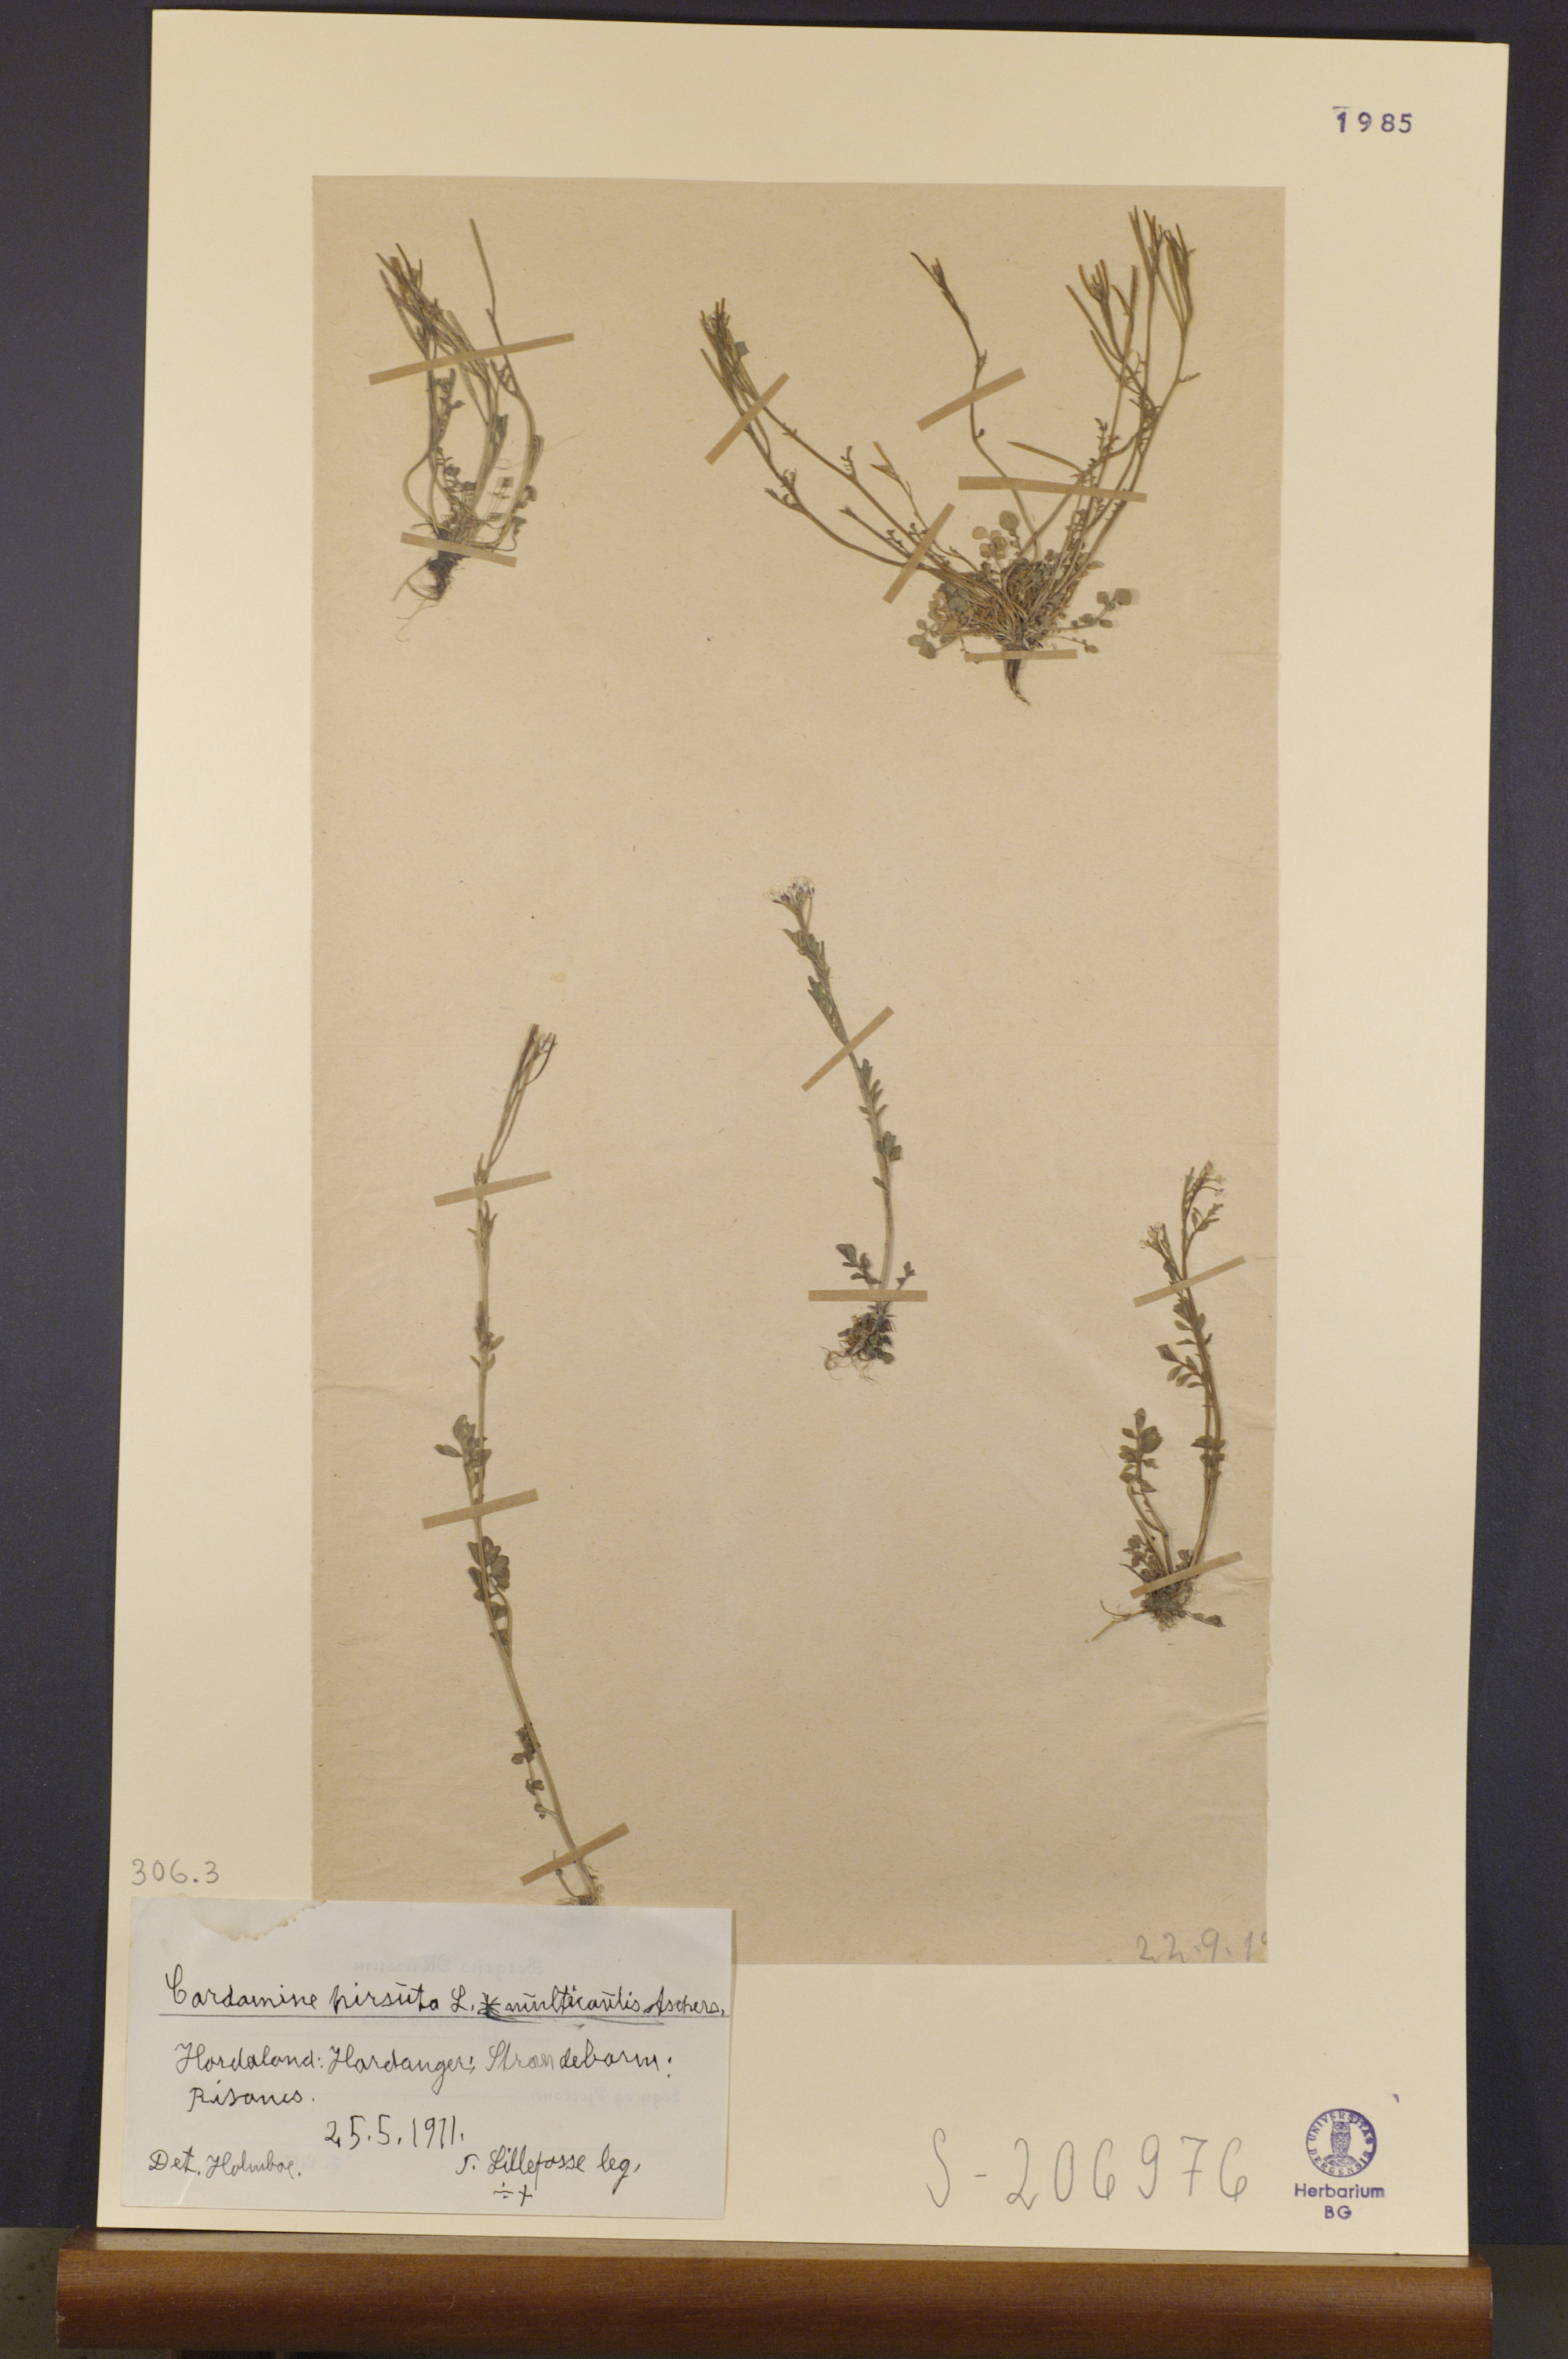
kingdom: Plantae
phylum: Tracheophyta
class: Magnoliopsida
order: Brassicales
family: Brassicaceae
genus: Cardamine
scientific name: Cardamine hirsuta
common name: Hairy bittercress
